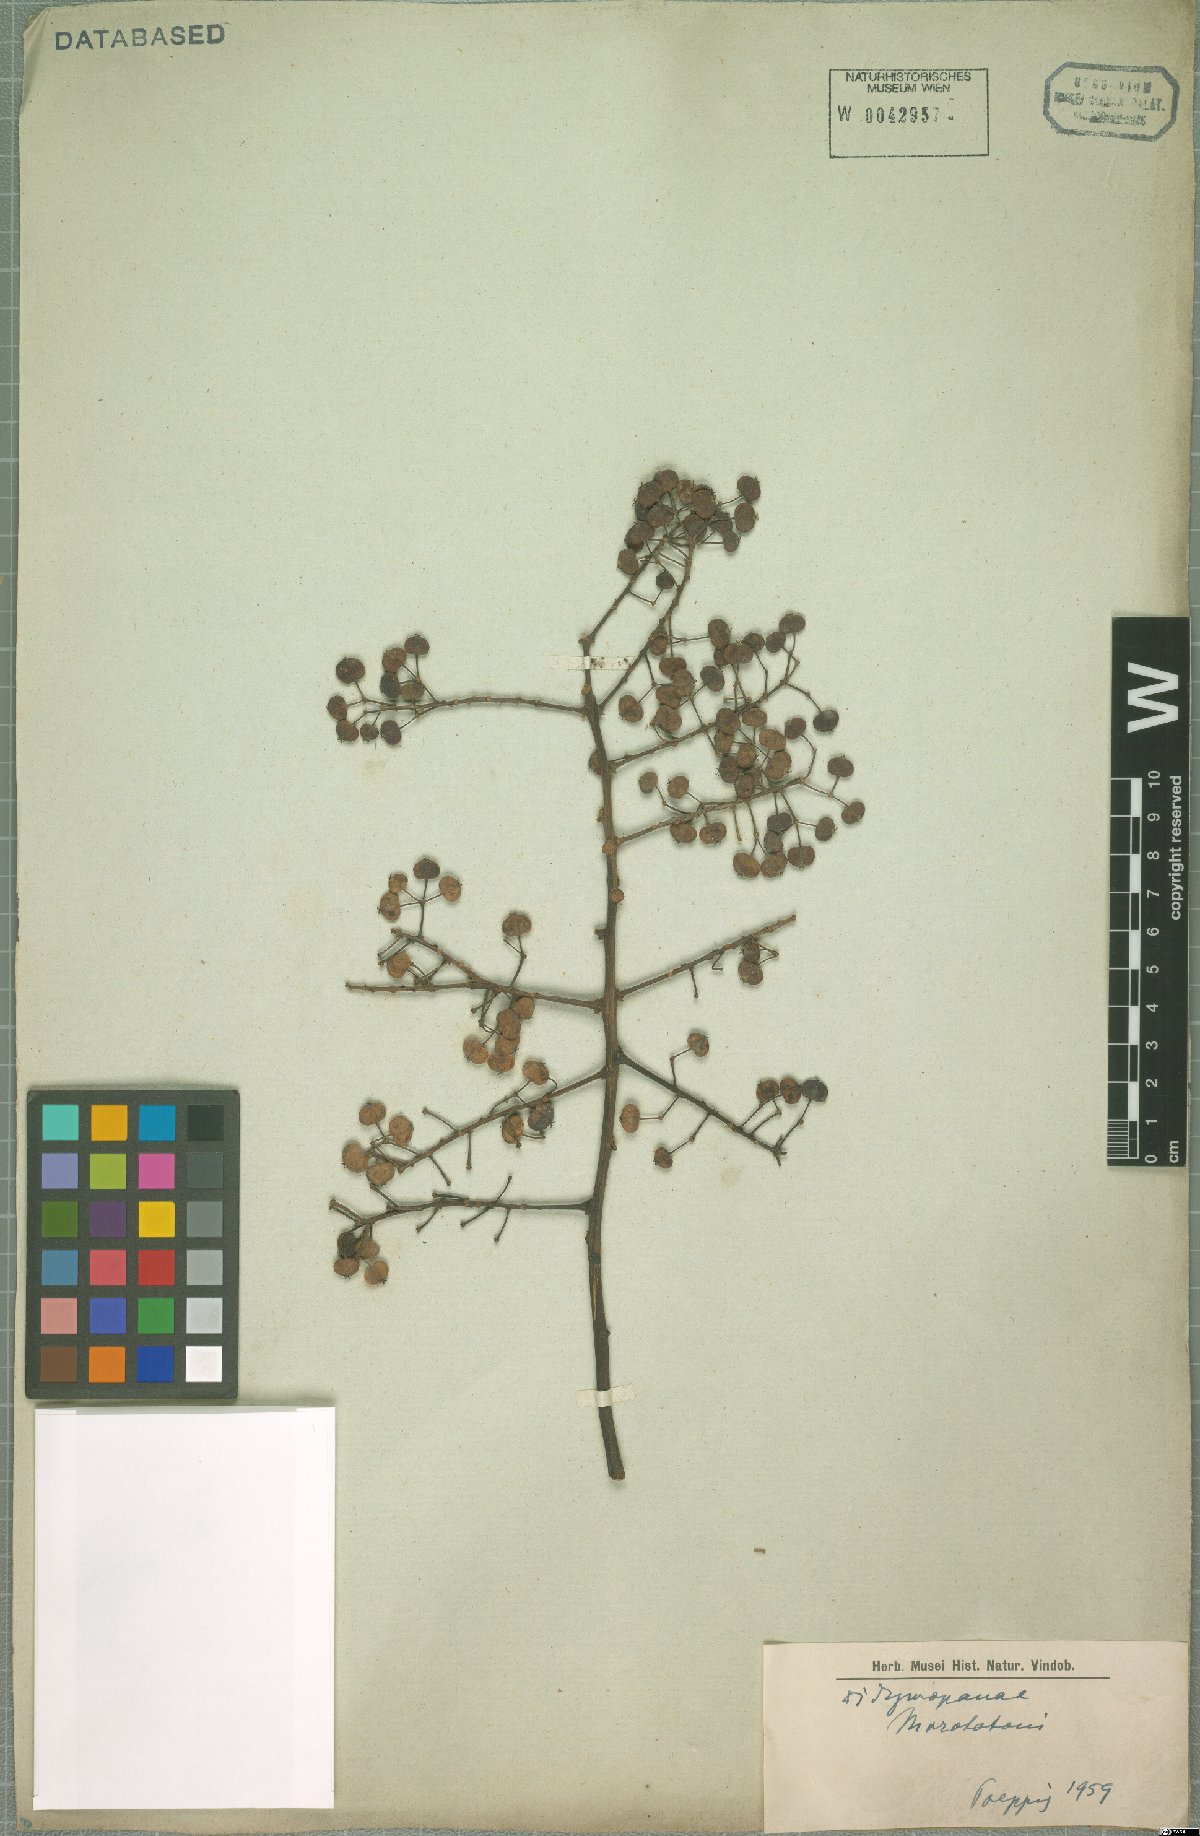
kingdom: Plantae
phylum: Tracheophyta
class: Magnoliopsida
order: Apiales
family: Araliaceae
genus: Didymopanax
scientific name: Didymopanax morototoni
